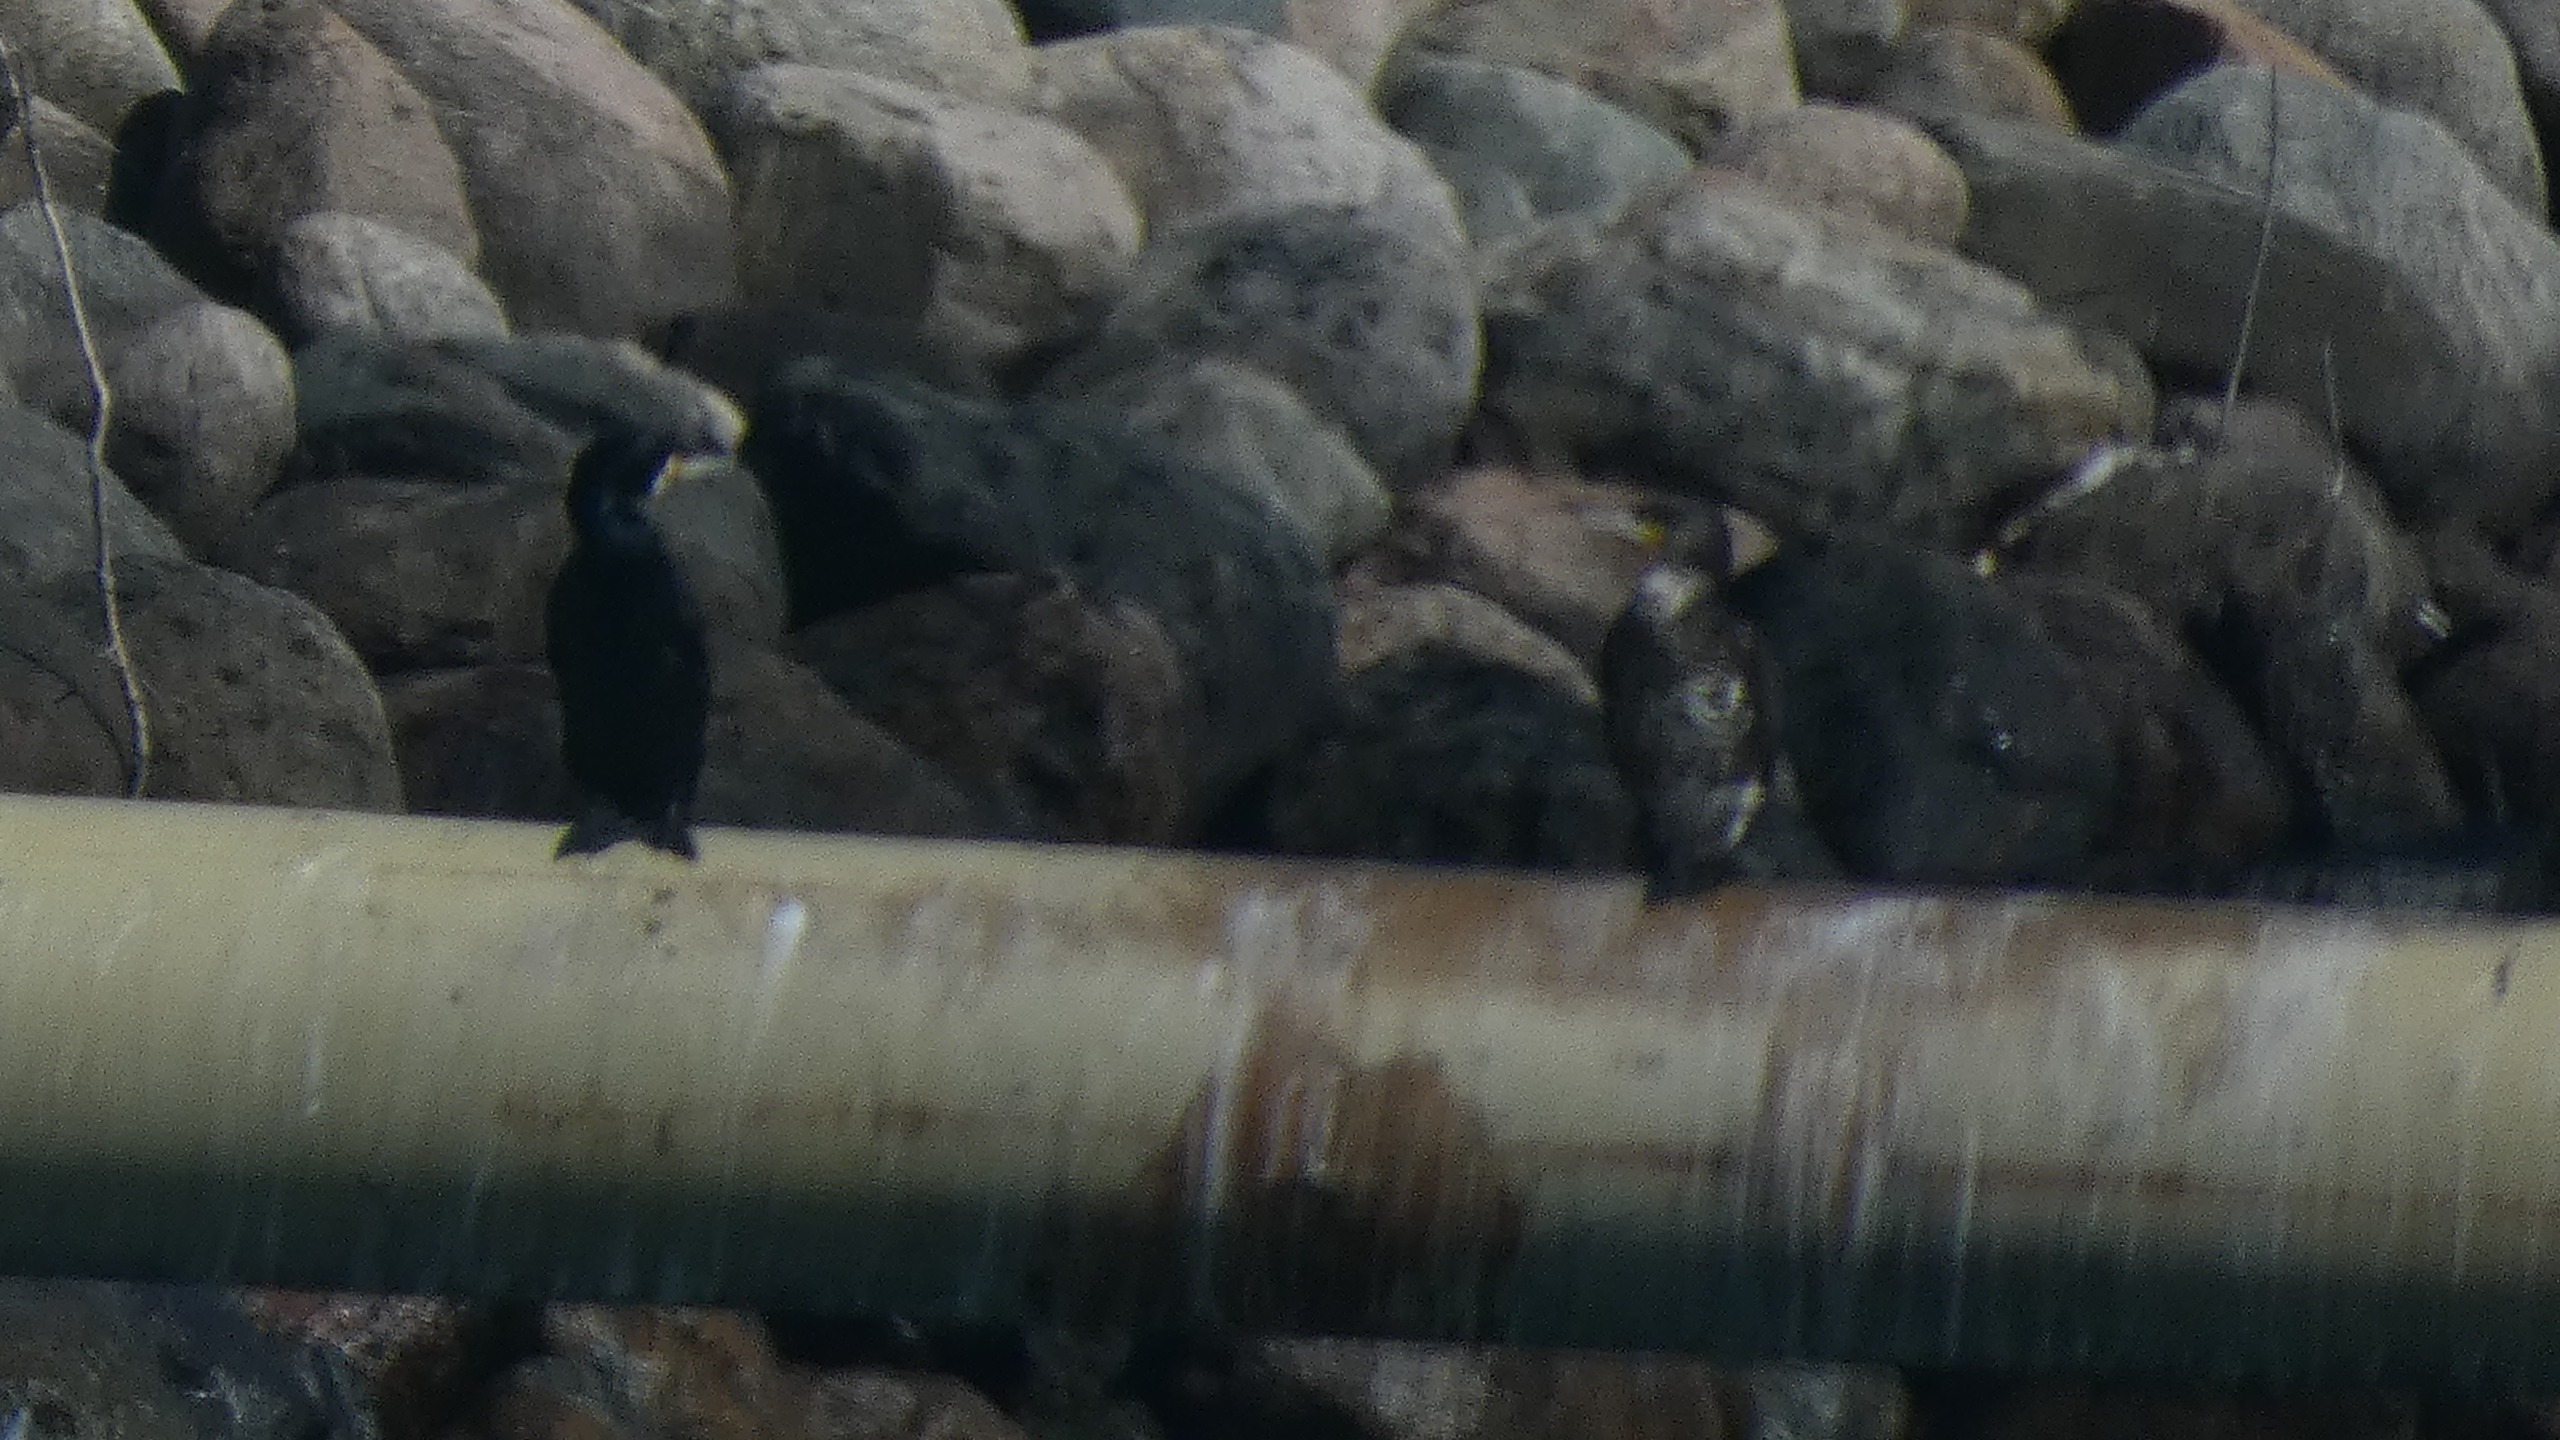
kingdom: Animalia
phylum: Chordata
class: Aves
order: Suliformes
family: Phalacrocoracidae
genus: Phalacrocorax
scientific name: Phalacrocorax carbo
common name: Skarv
